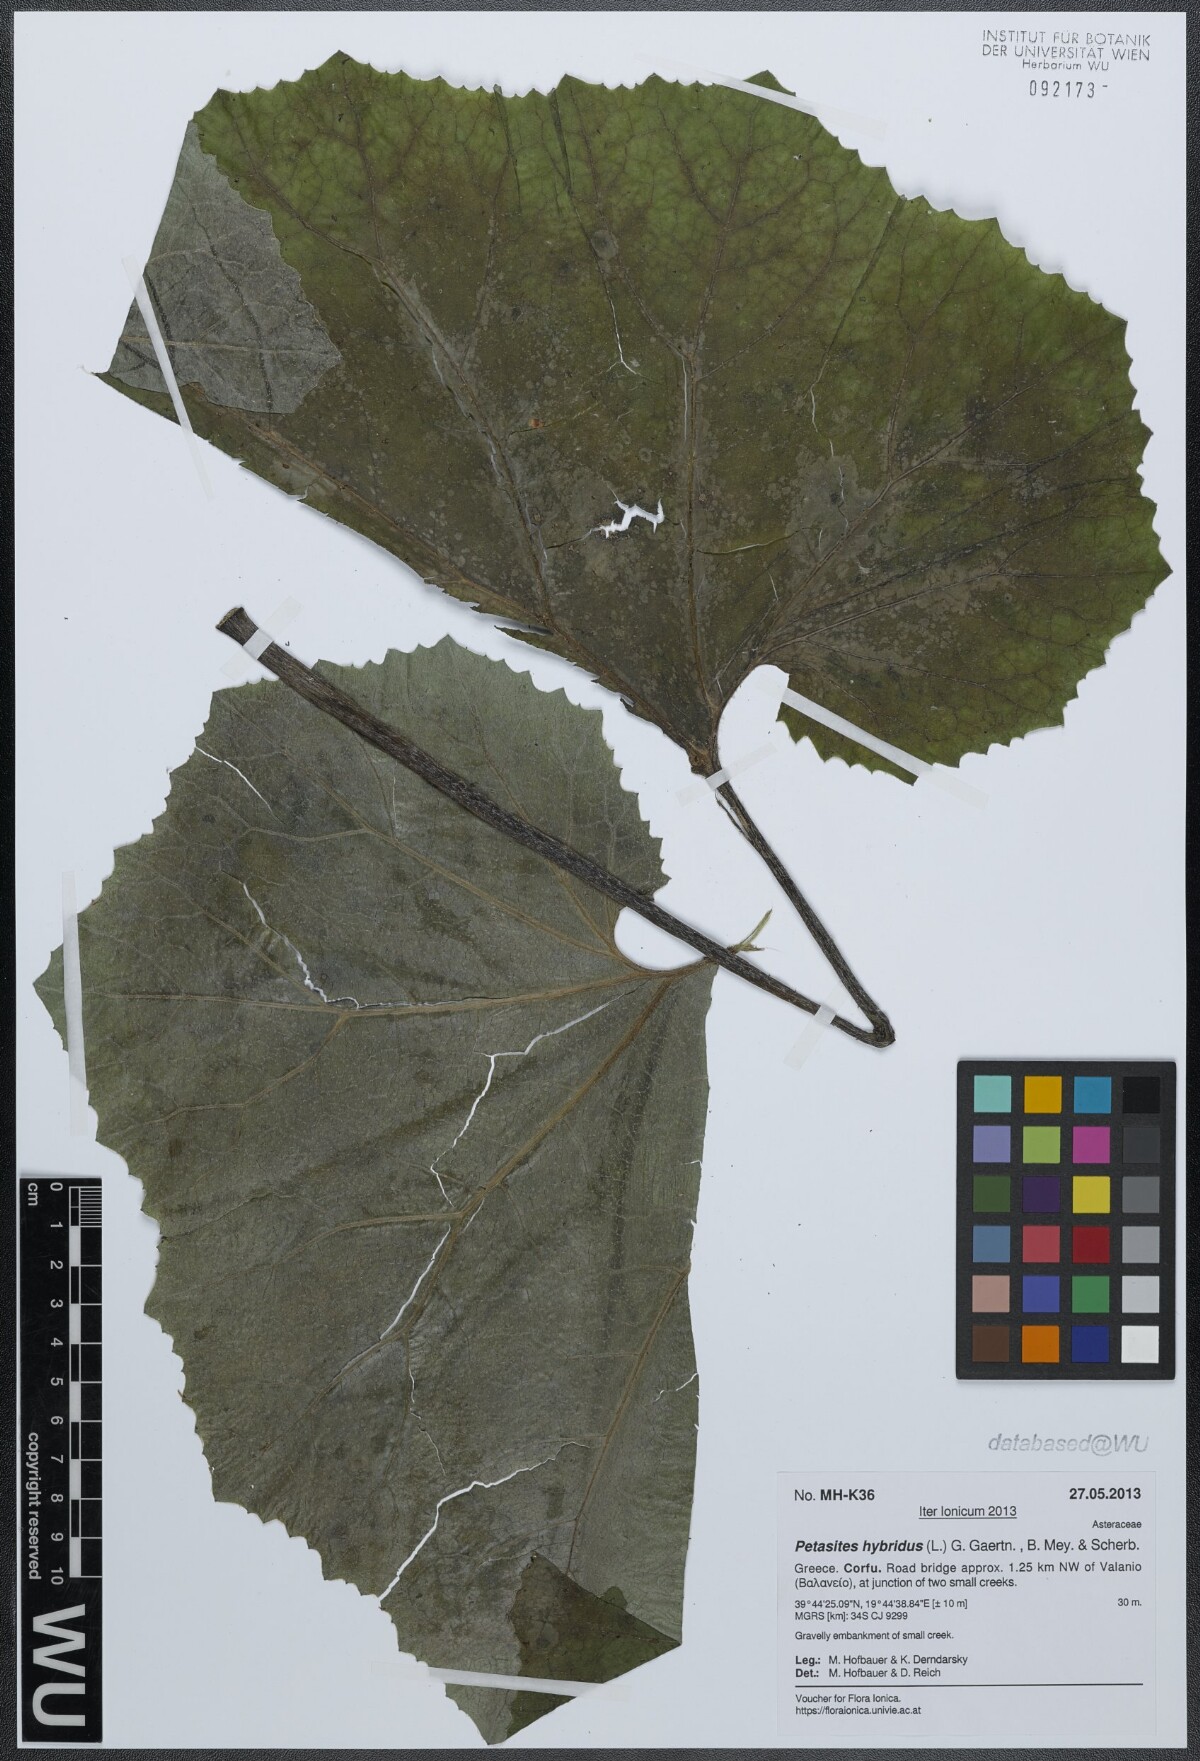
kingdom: Plantae
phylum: Tracheophyta
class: Magnoliopsida
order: Asterales
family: Asteraceae
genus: Petasites
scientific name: Petasites hybridus
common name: Butterbur
